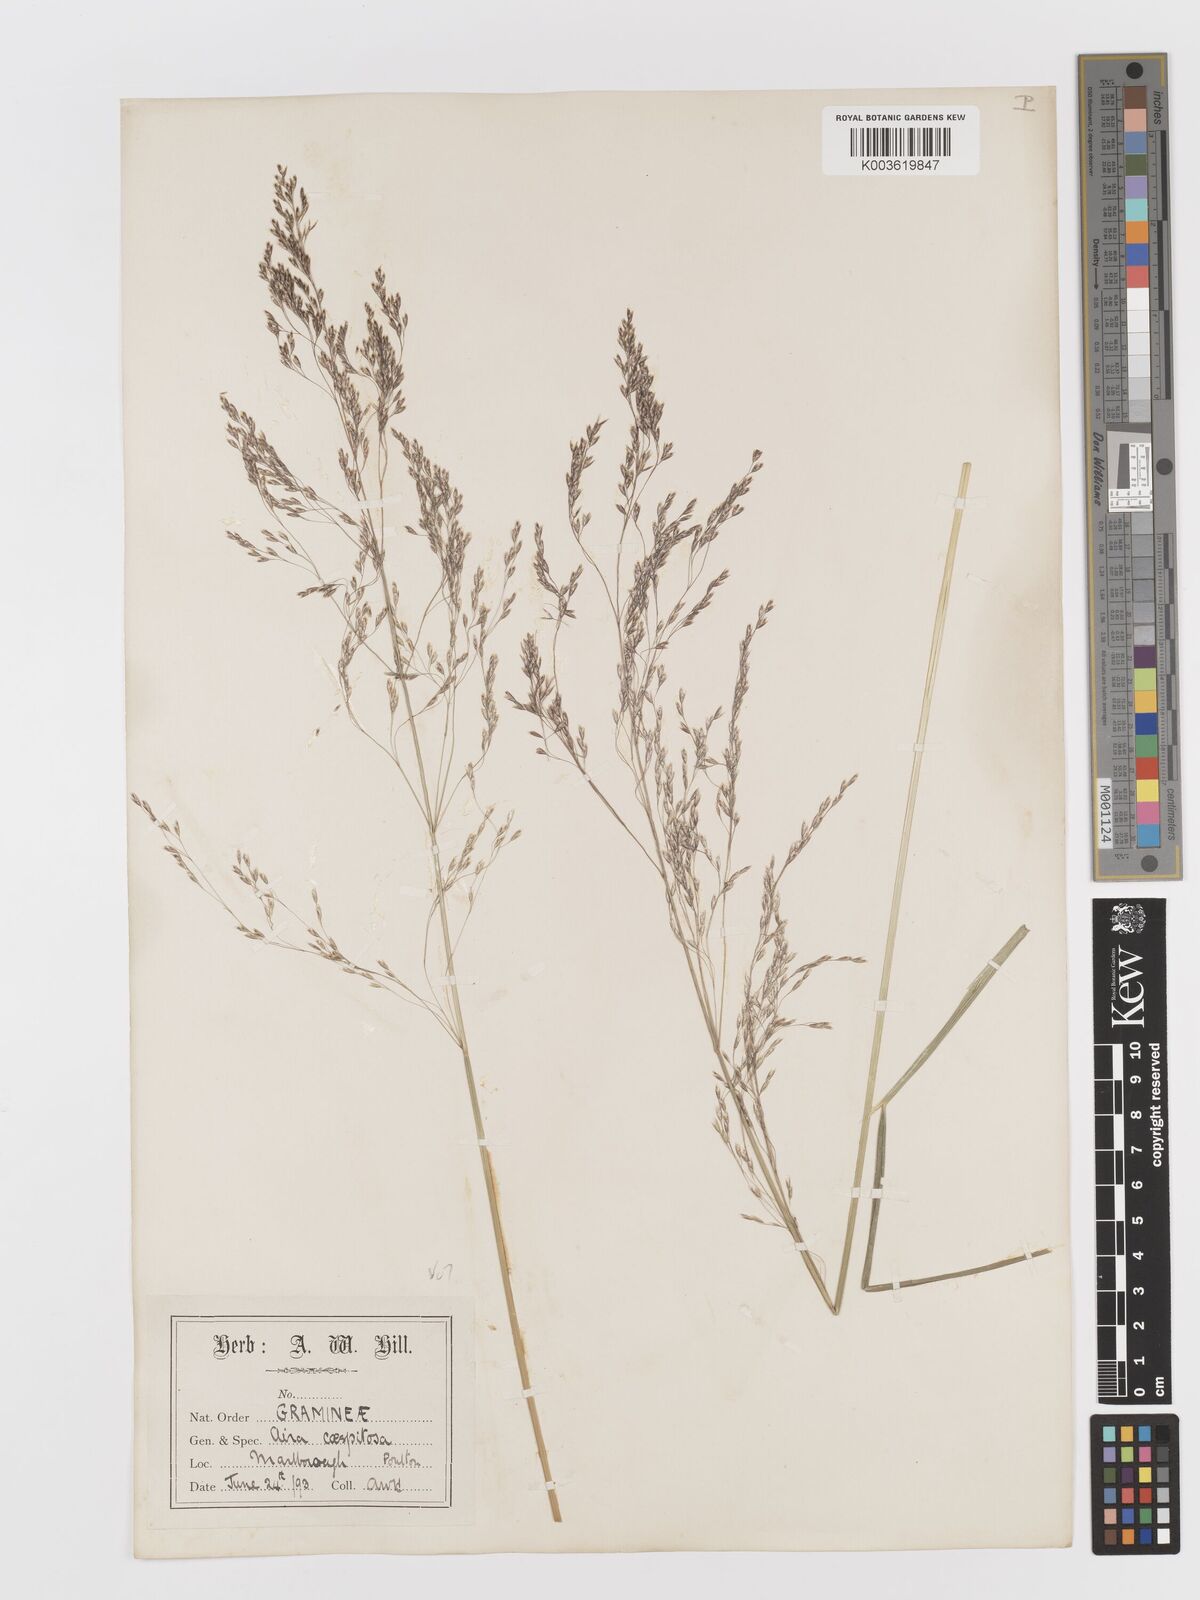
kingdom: Plantae
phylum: Tracheophyta
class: Liliopsida
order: Poales
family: Poaceae
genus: Deschampsia
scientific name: Deschampsia cespitosa
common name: Tufted hair-grass
